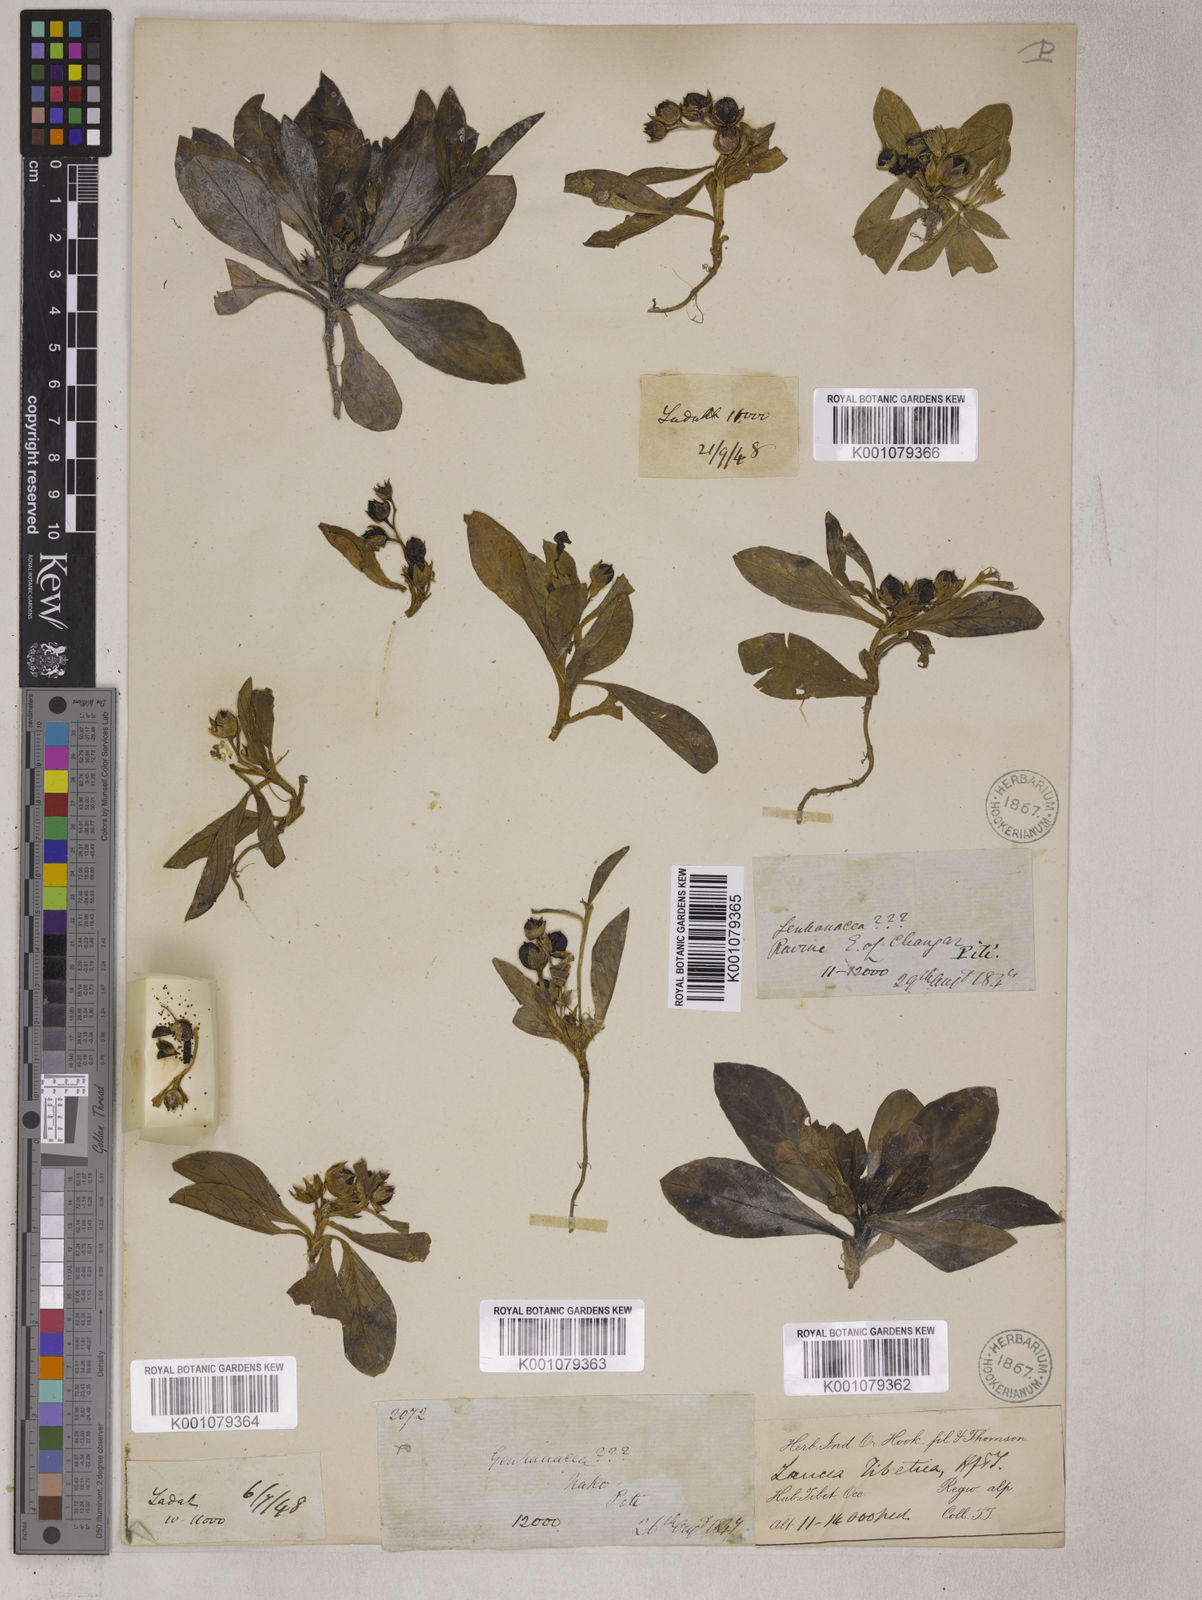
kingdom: Plantae
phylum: Tracheophyta
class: Magnoliopsida
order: Lamiales
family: Mazaceae
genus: Lancea
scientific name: Lancea tibetica
